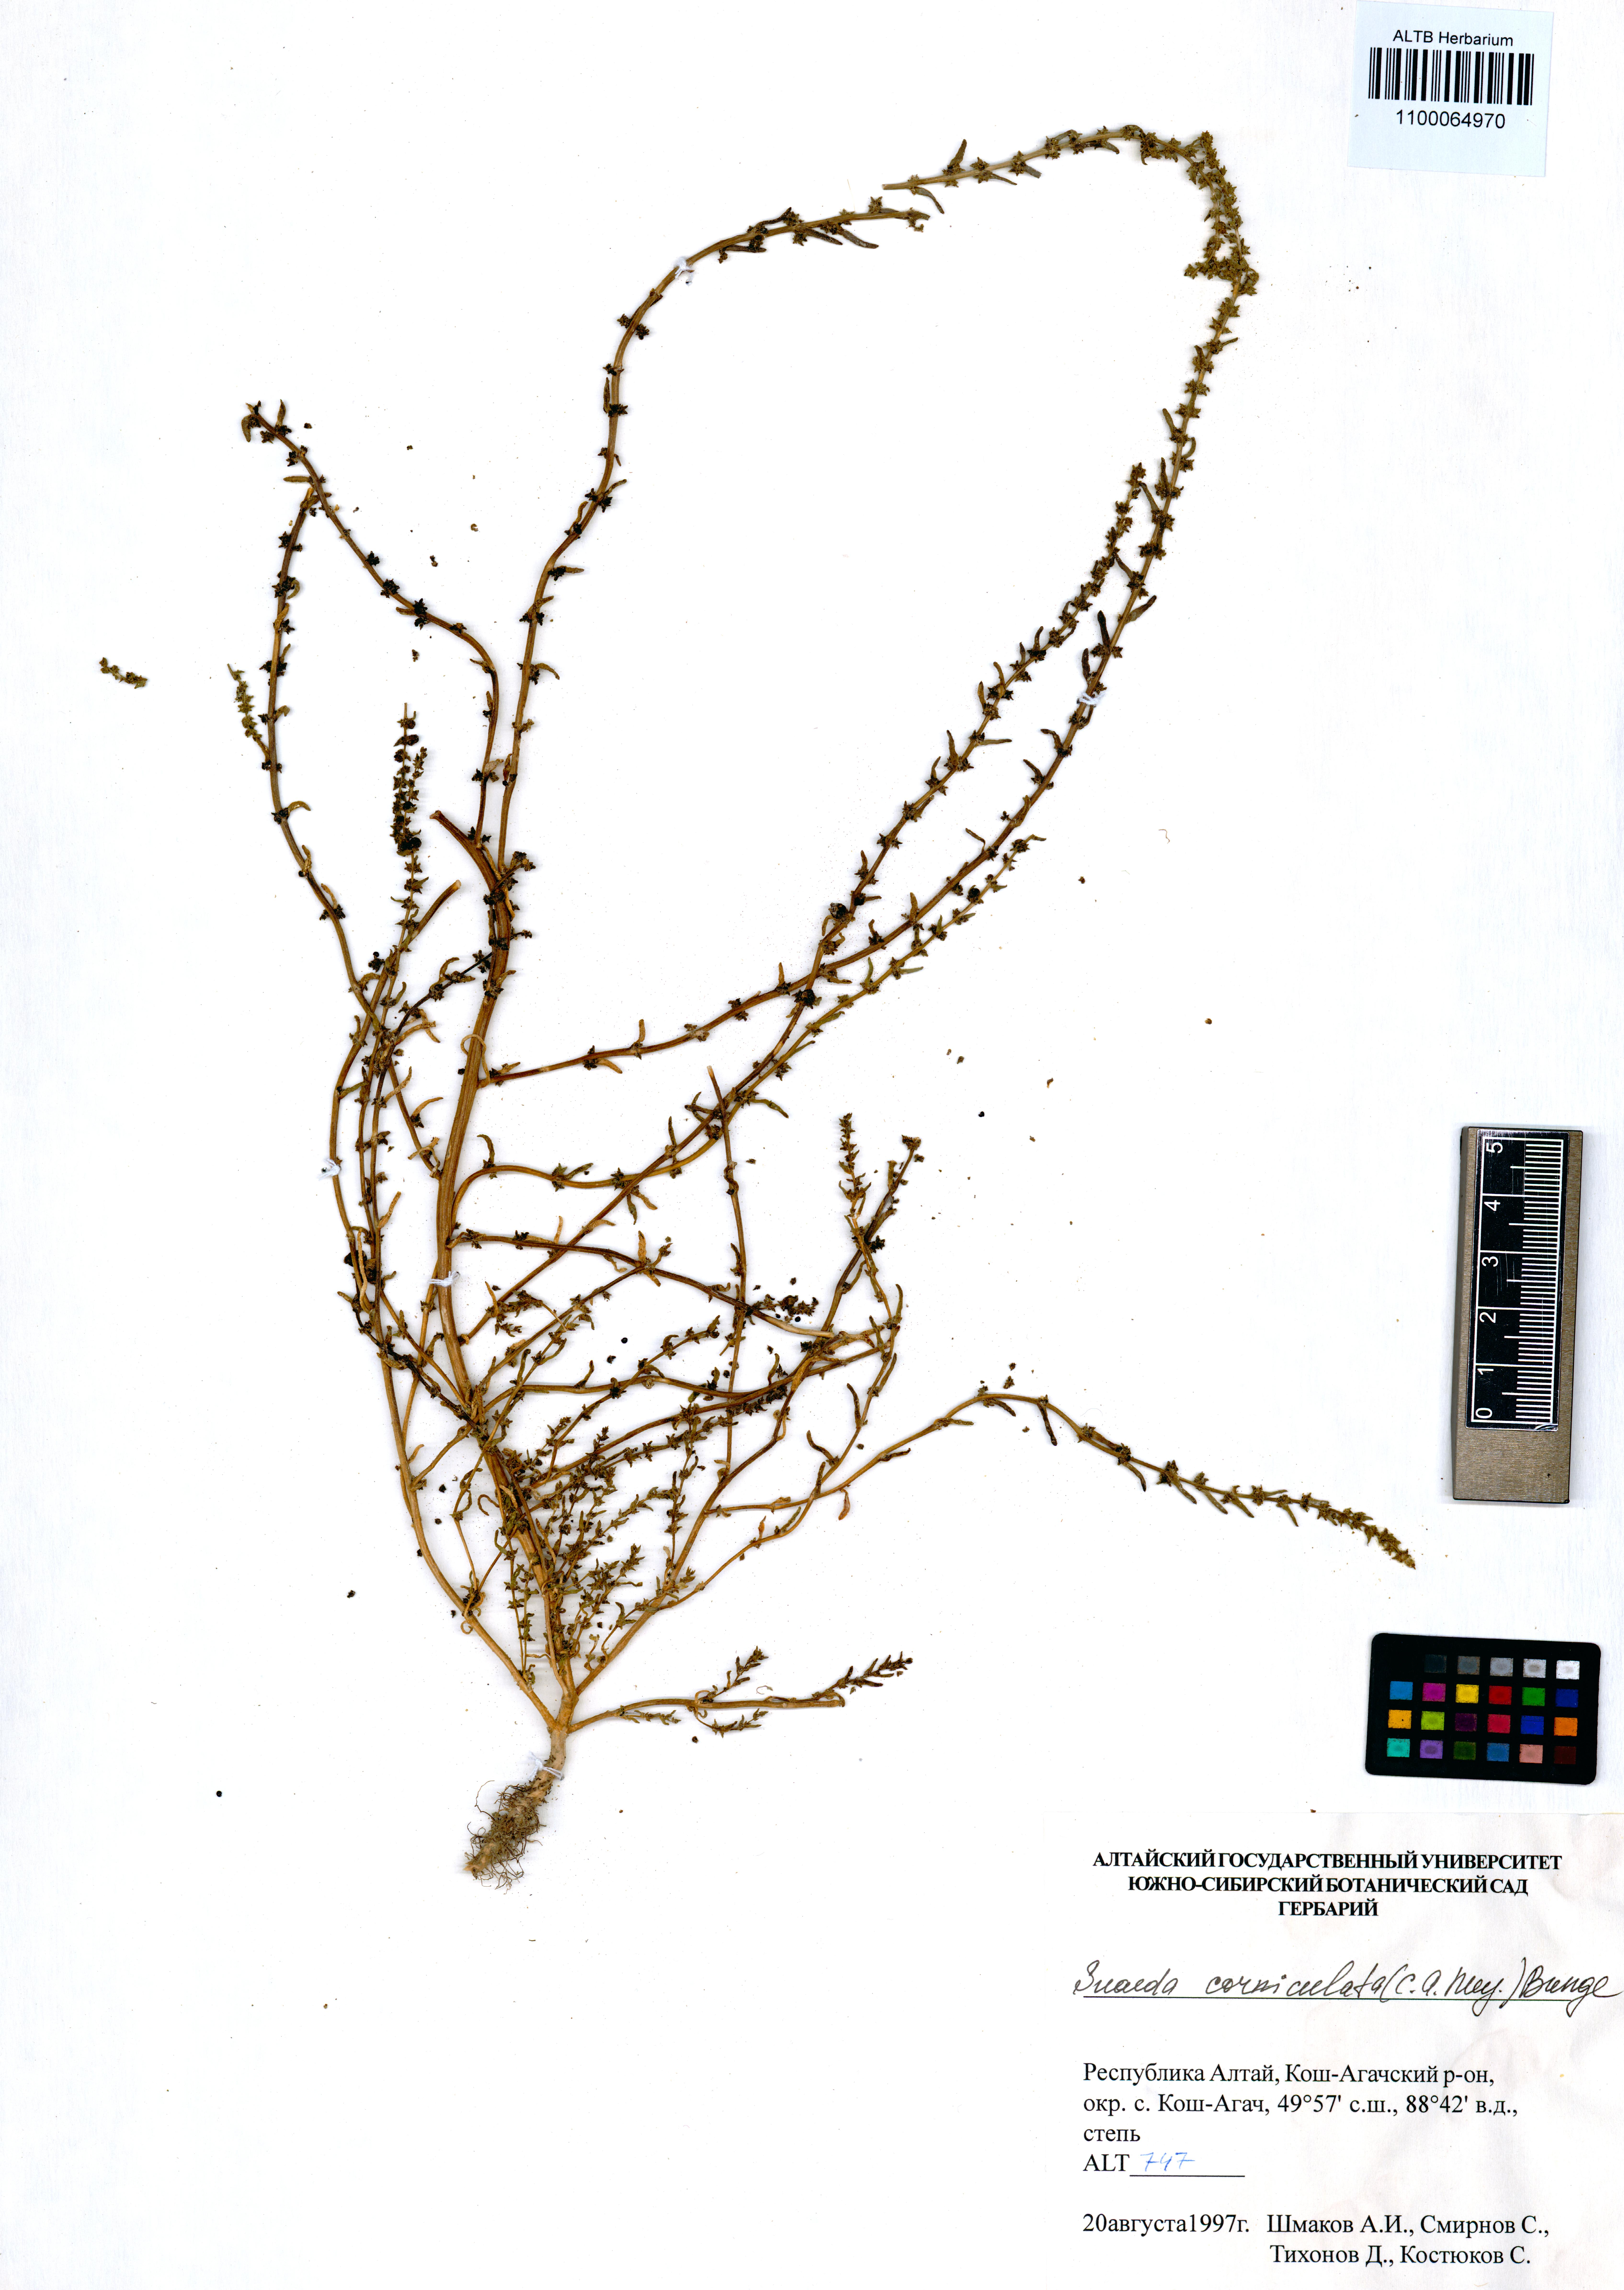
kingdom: Plantae
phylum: Tracheophyta
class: Magnoliopsida
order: Caryophyllales
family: Amaranthaceae
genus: Suaeda
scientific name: Suaeda corniculata
